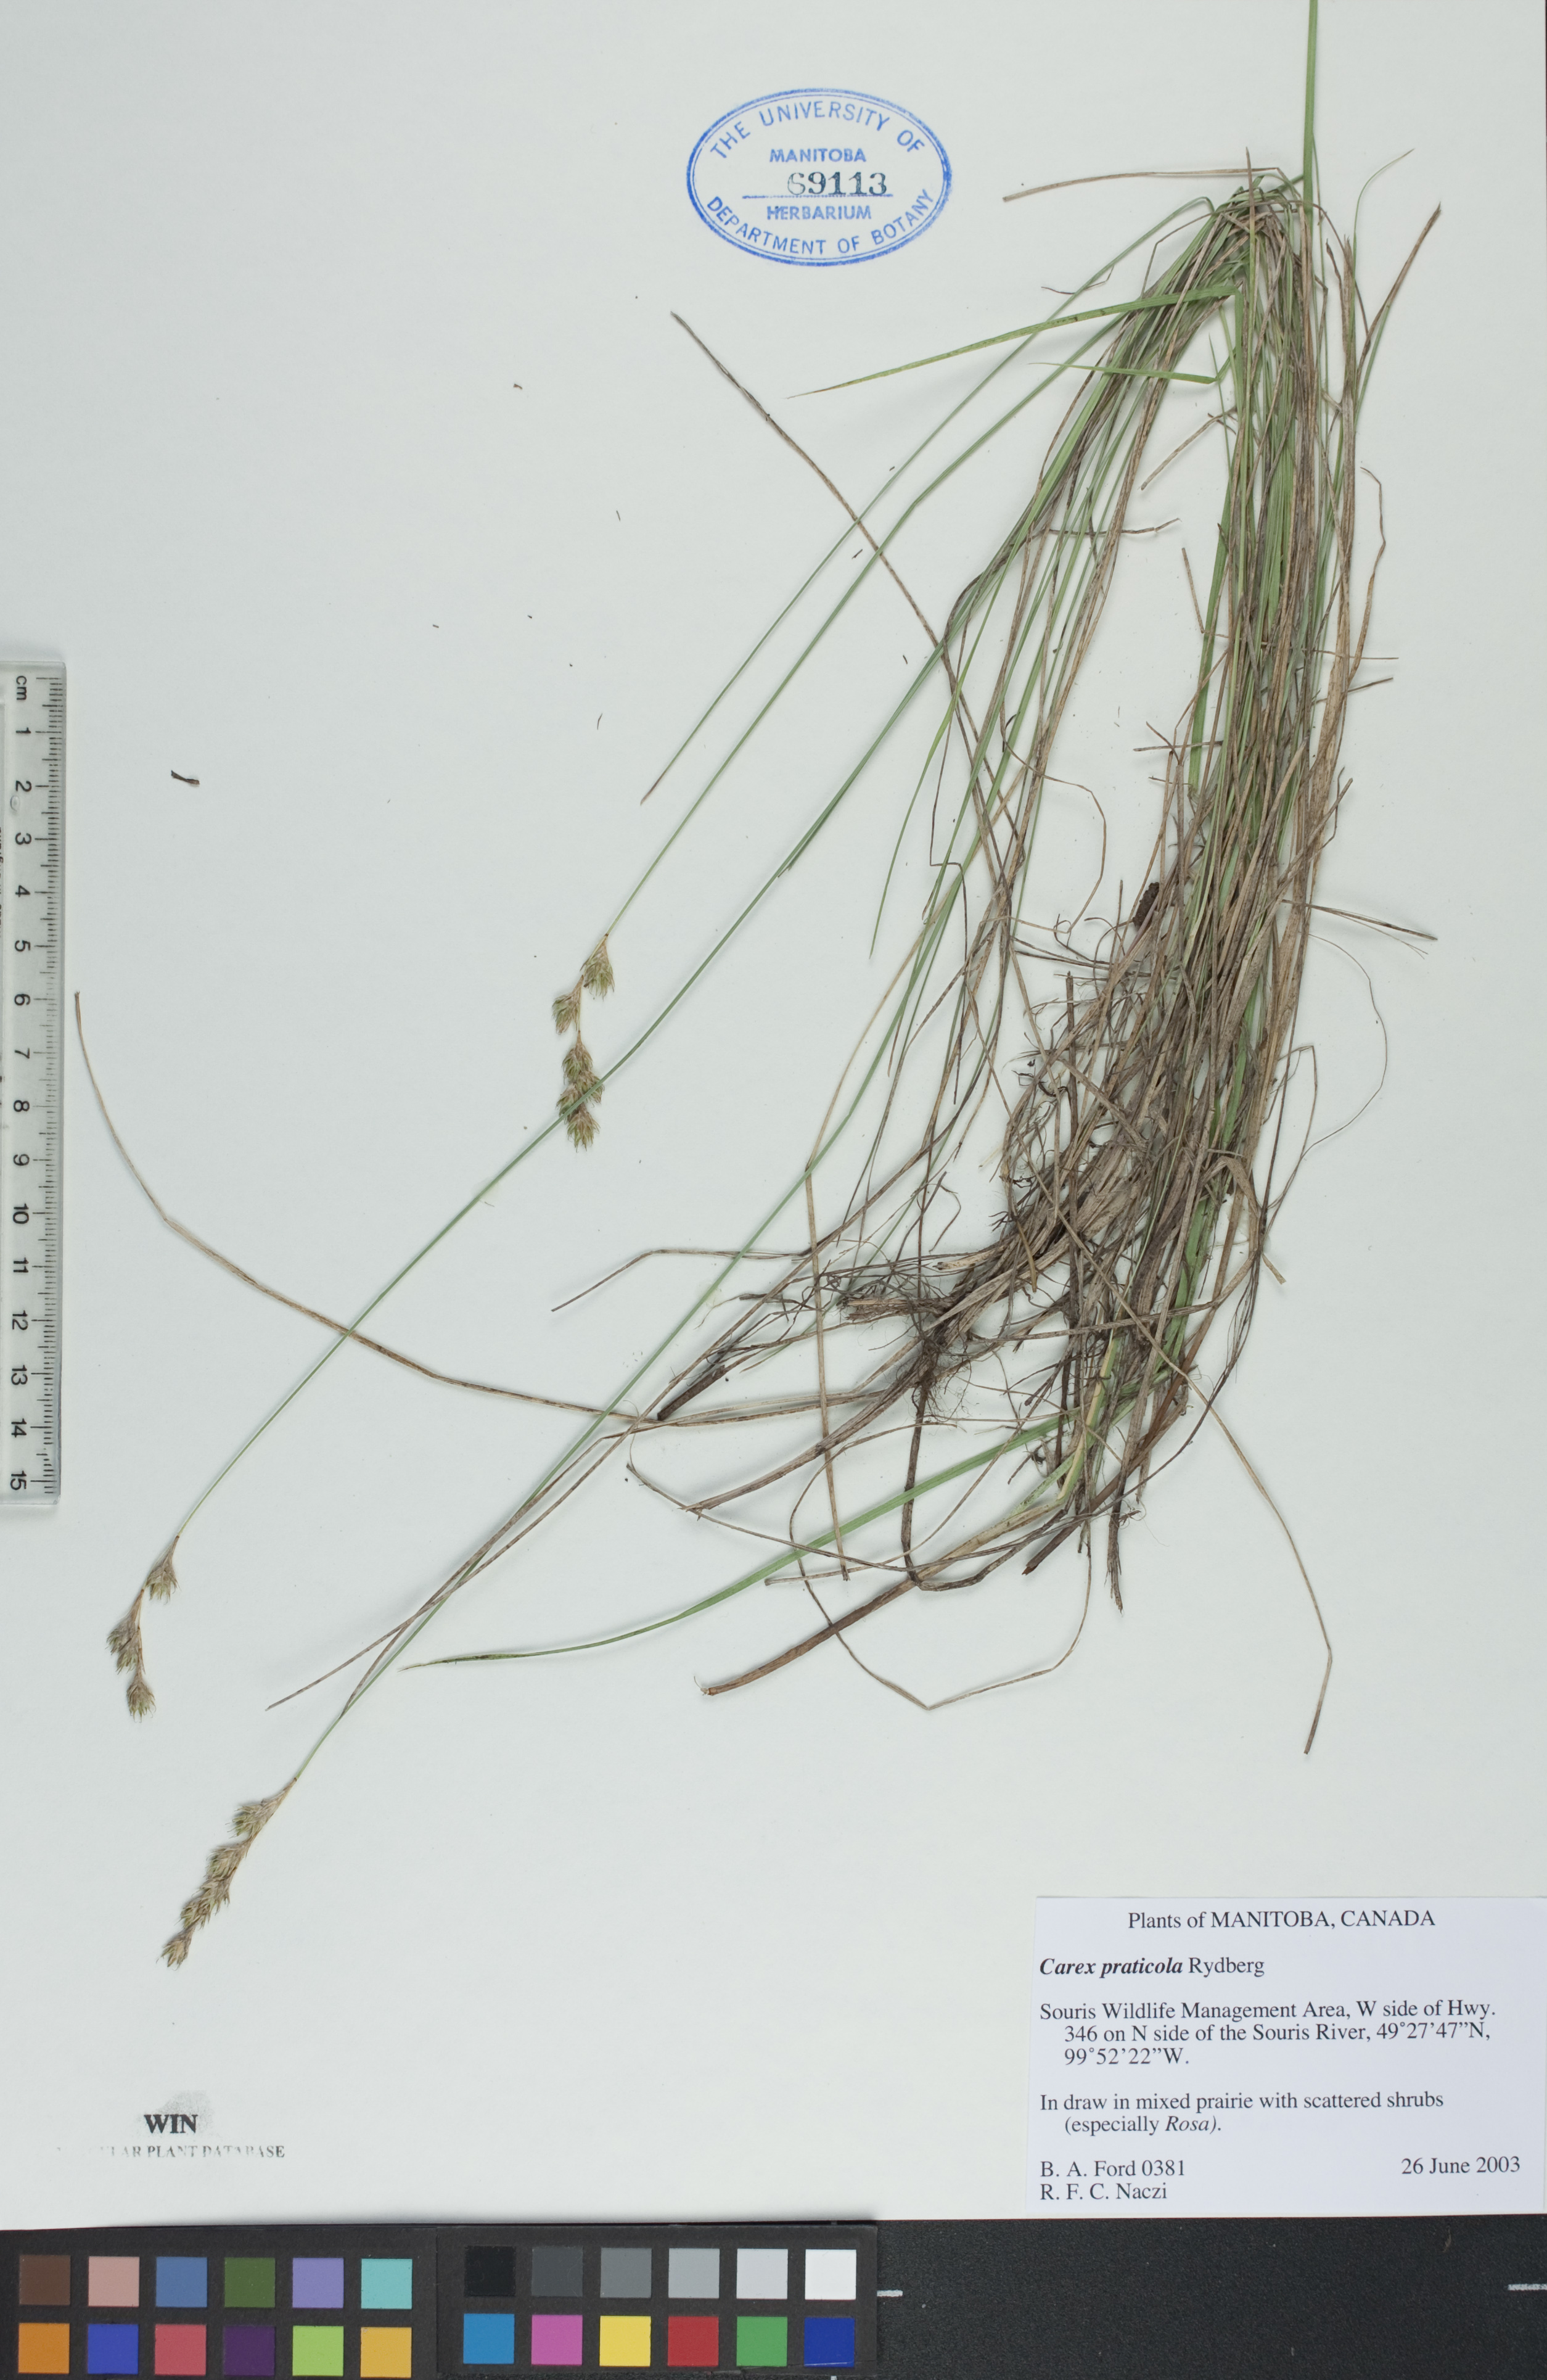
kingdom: Plantae
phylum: Tracheophyta
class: Liliopsida
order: Poales
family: Cyperaceae
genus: Carex
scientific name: Carex praticola
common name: Large-fruited oval sedge
